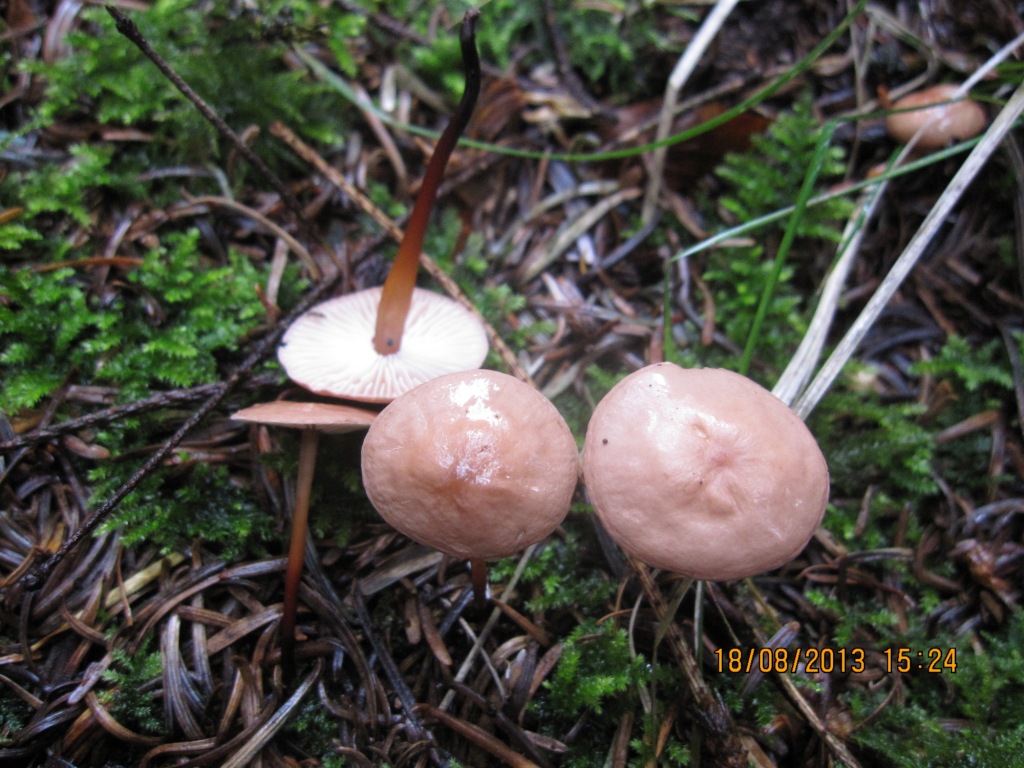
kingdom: Fungi
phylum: Basidiomycota
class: Agaricomycetes
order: Agaricales
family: Omphalotaceae
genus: Mycetinis
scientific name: Mycetinis scorodonius
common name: lille løghat
